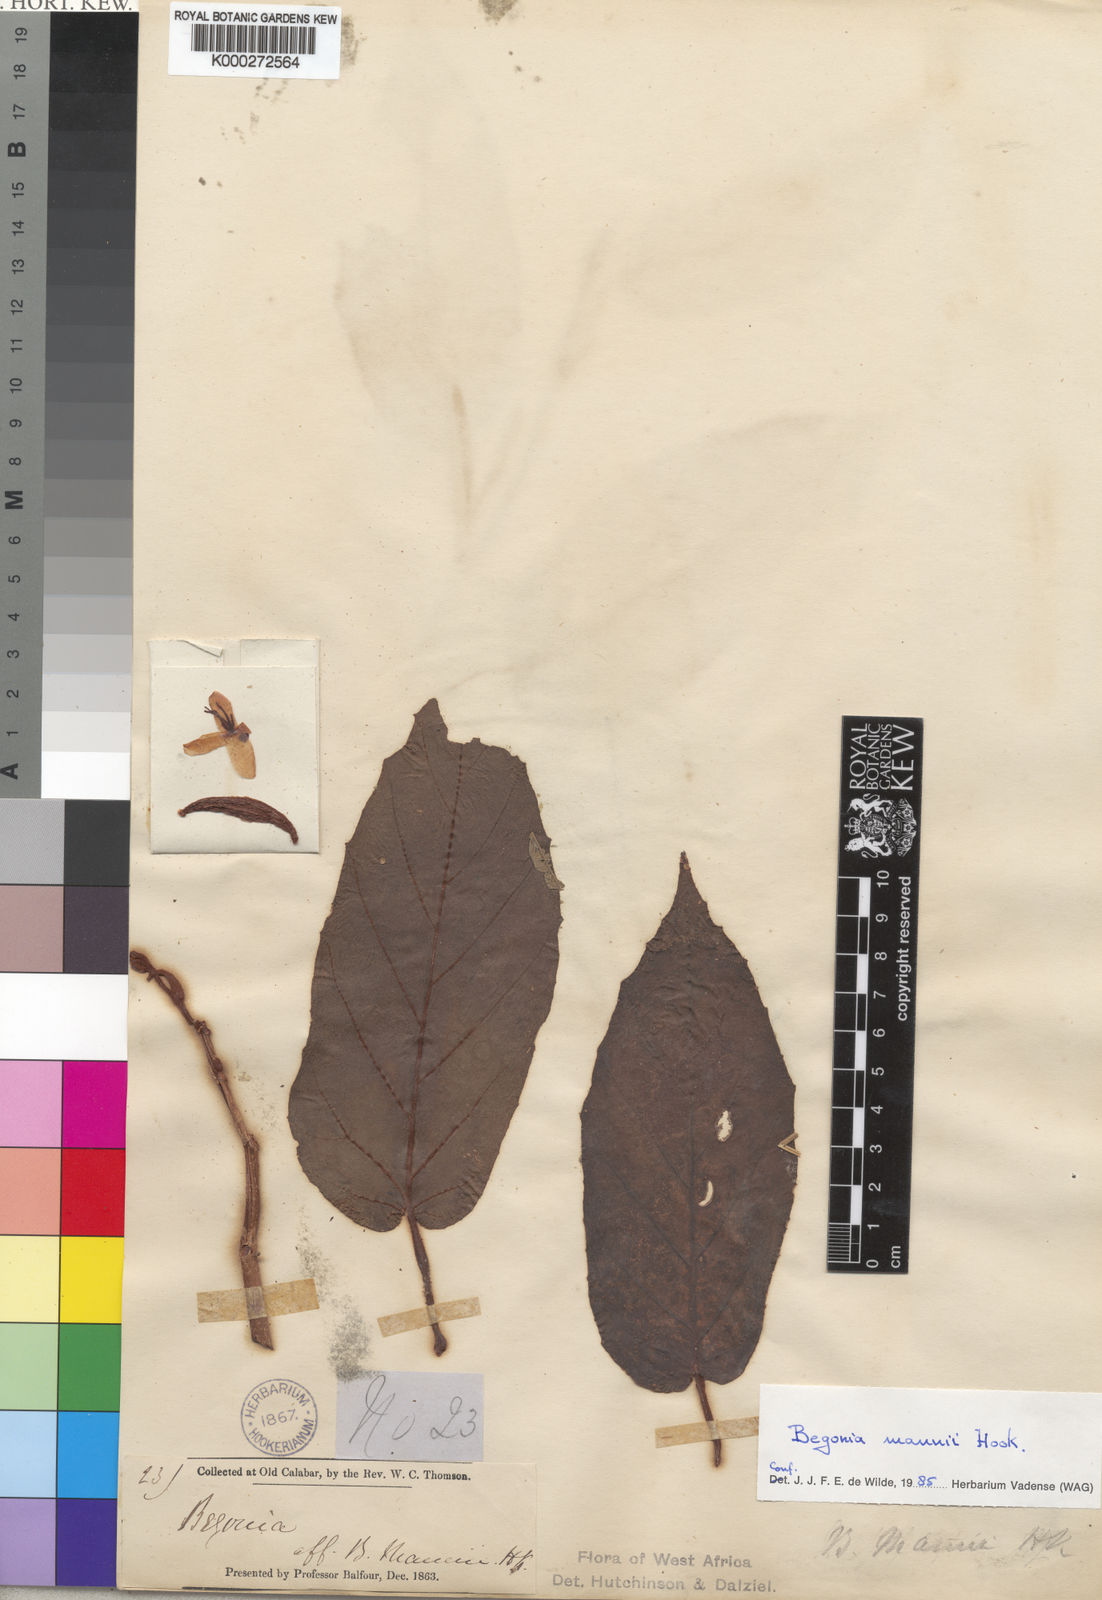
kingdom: Plantae
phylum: Tracheophyta
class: Magnoliopsida
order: Cucurbitales
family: Begoniaceae
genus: Begonia
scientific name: Begonia mannii
